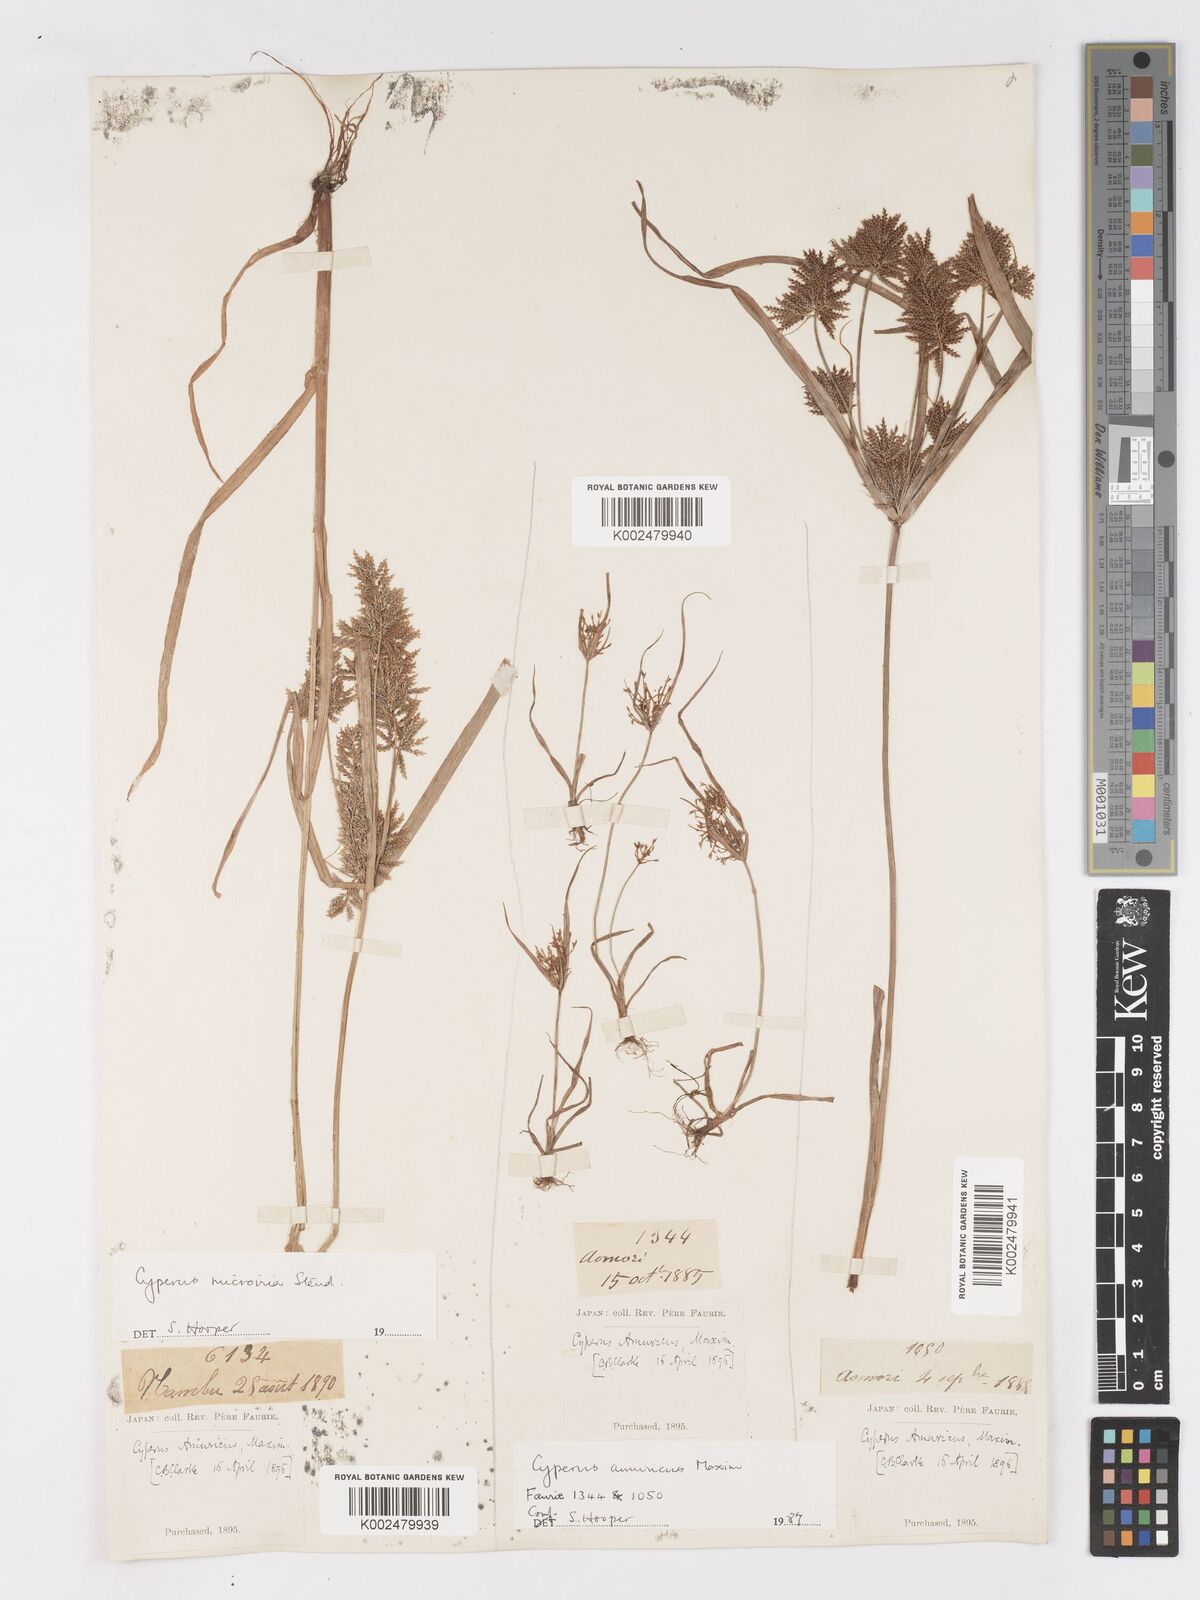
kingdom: Plantae
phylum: Tracheophyta
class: Liliopsida
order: Poales
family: Cyperaceae
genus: Cyperus
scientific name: Cyperus amuricus
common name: Asian flatsedge
